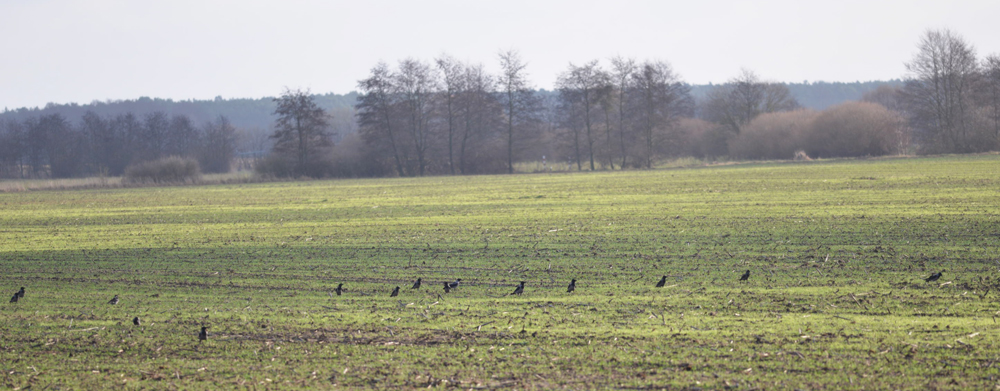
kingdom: Animalia
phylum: Chordata
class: Aves
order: Passeriformes
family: Corvidae
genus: Corvus
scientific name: Corvus cornix
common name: Hooded crow
